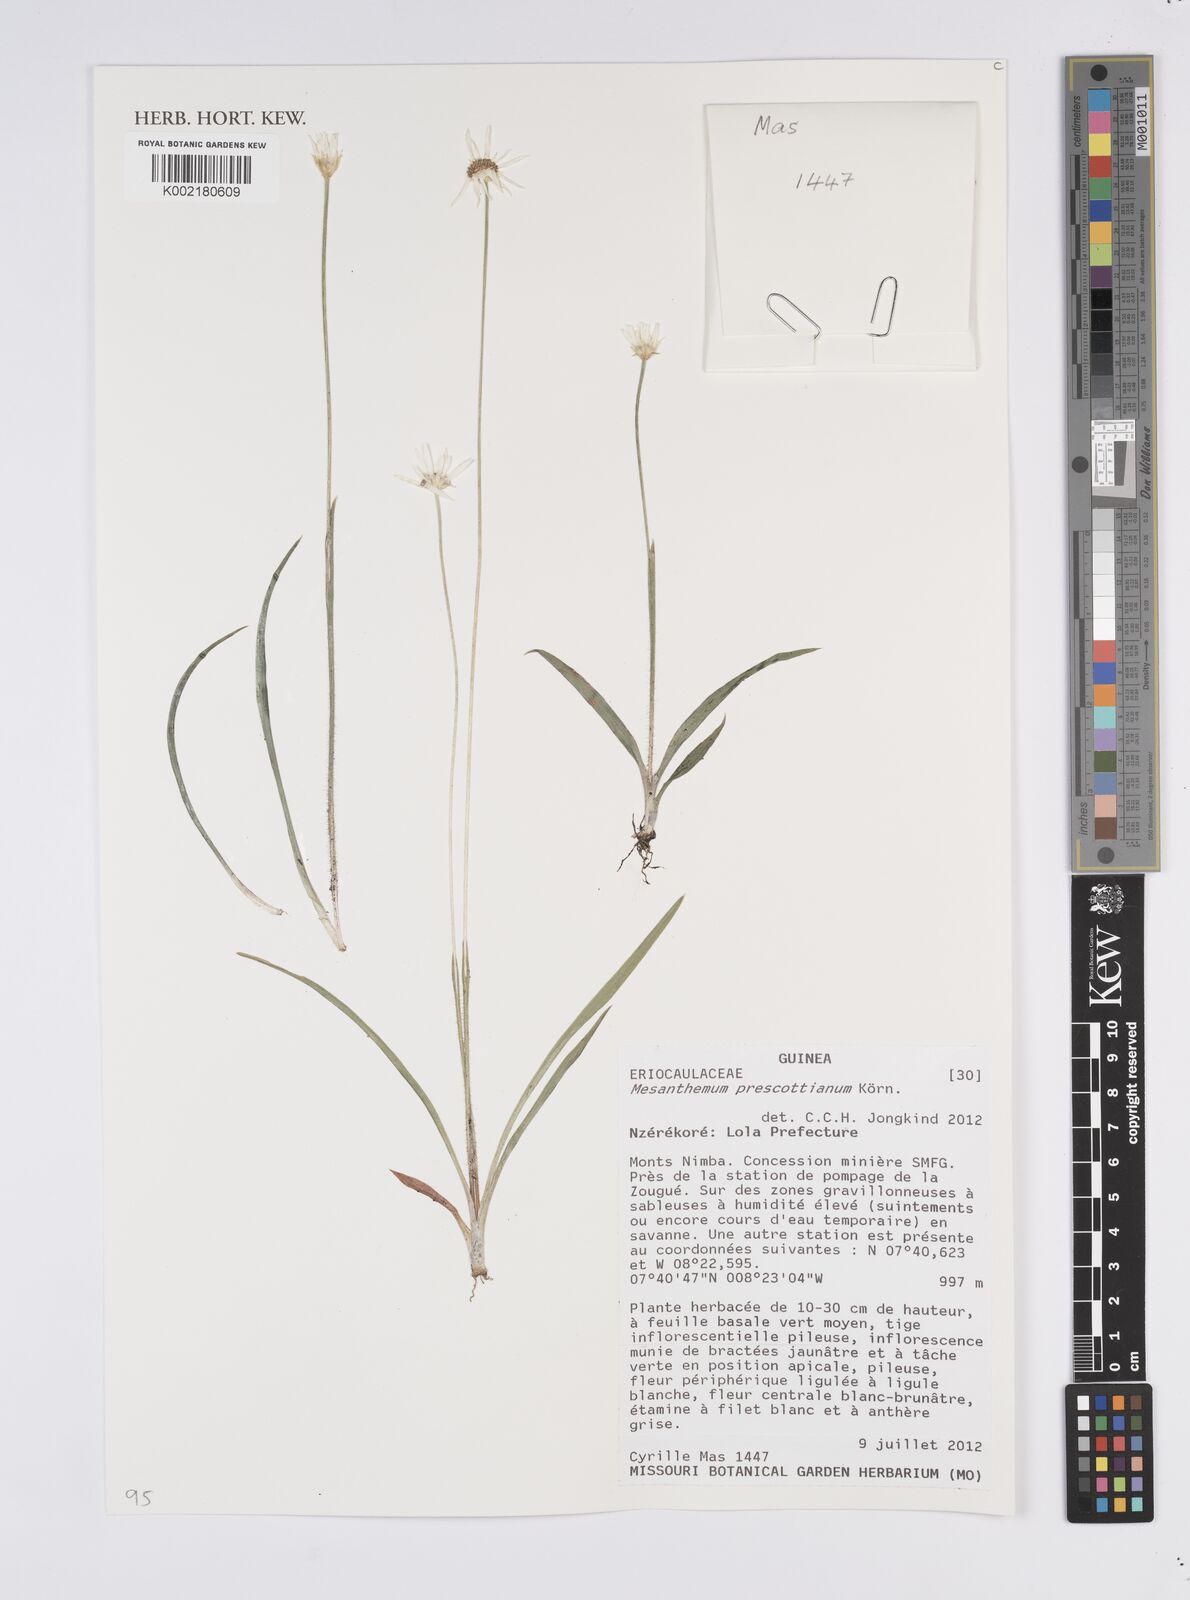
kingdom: Plantae
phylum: Tracheophyta
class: Liliopsida
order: Poales
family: Eriocaulaceae
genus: Mesanthemum
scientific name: Mesanthemum prescottianum
